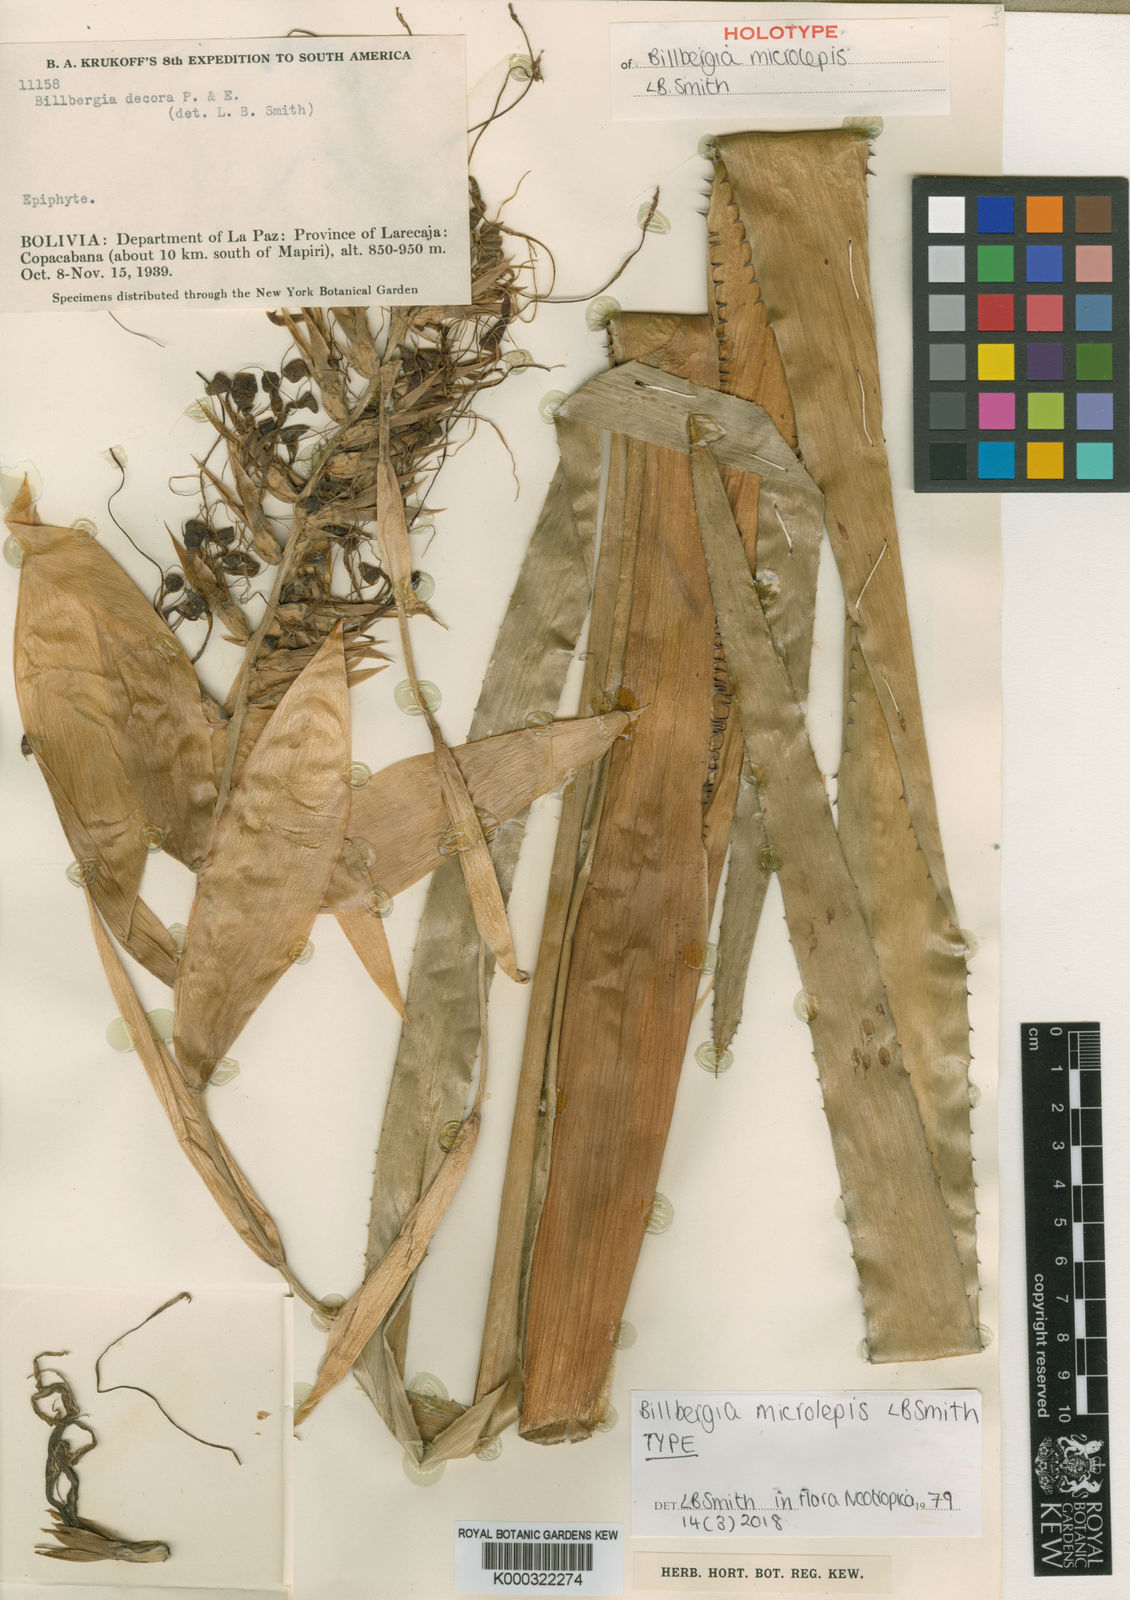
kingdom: Plantae
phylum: Tracheophyta
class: Liliopsida
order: Poales
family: Bromeliaceae
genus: Billbergia
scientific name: Billbergia microlepis
